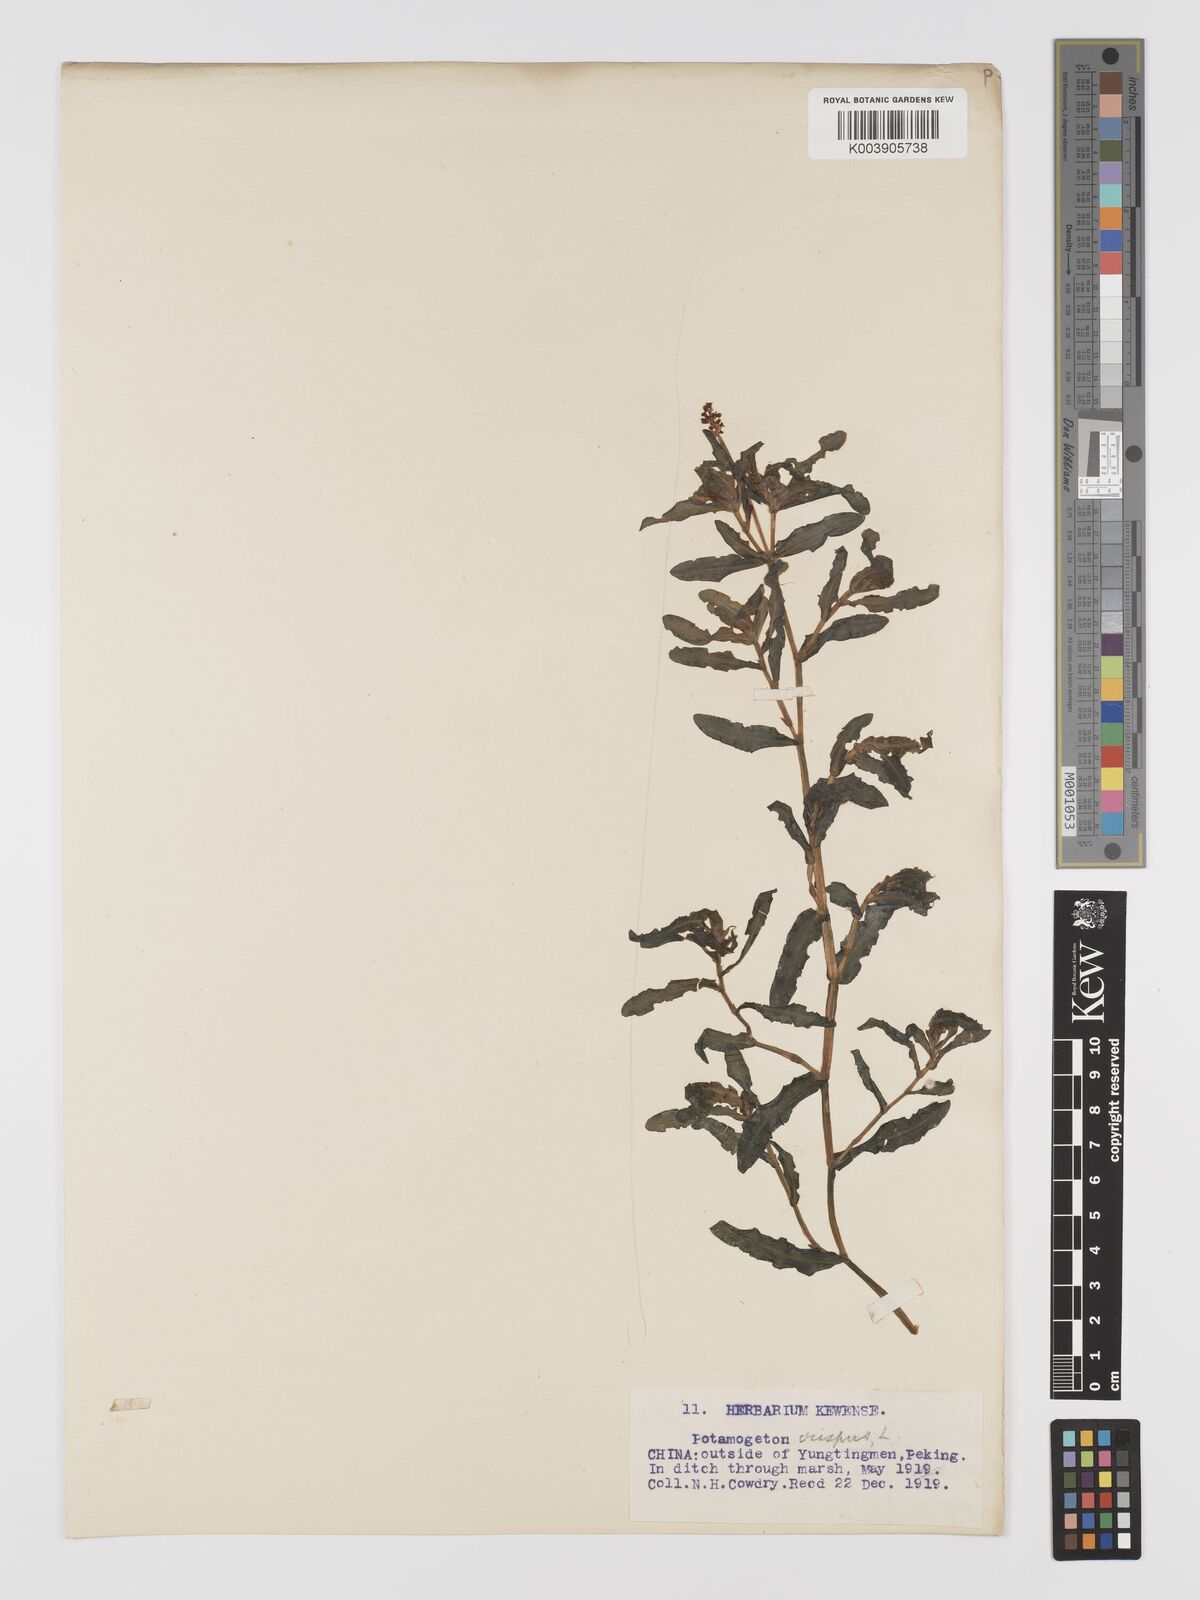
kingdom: Plantae
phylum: Tracheophyta
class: Liliopsida
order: Alismatales
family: Potamogetonaceae
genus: Potamogeton
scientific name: Potamogeton crispus
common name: Curled pondweed
